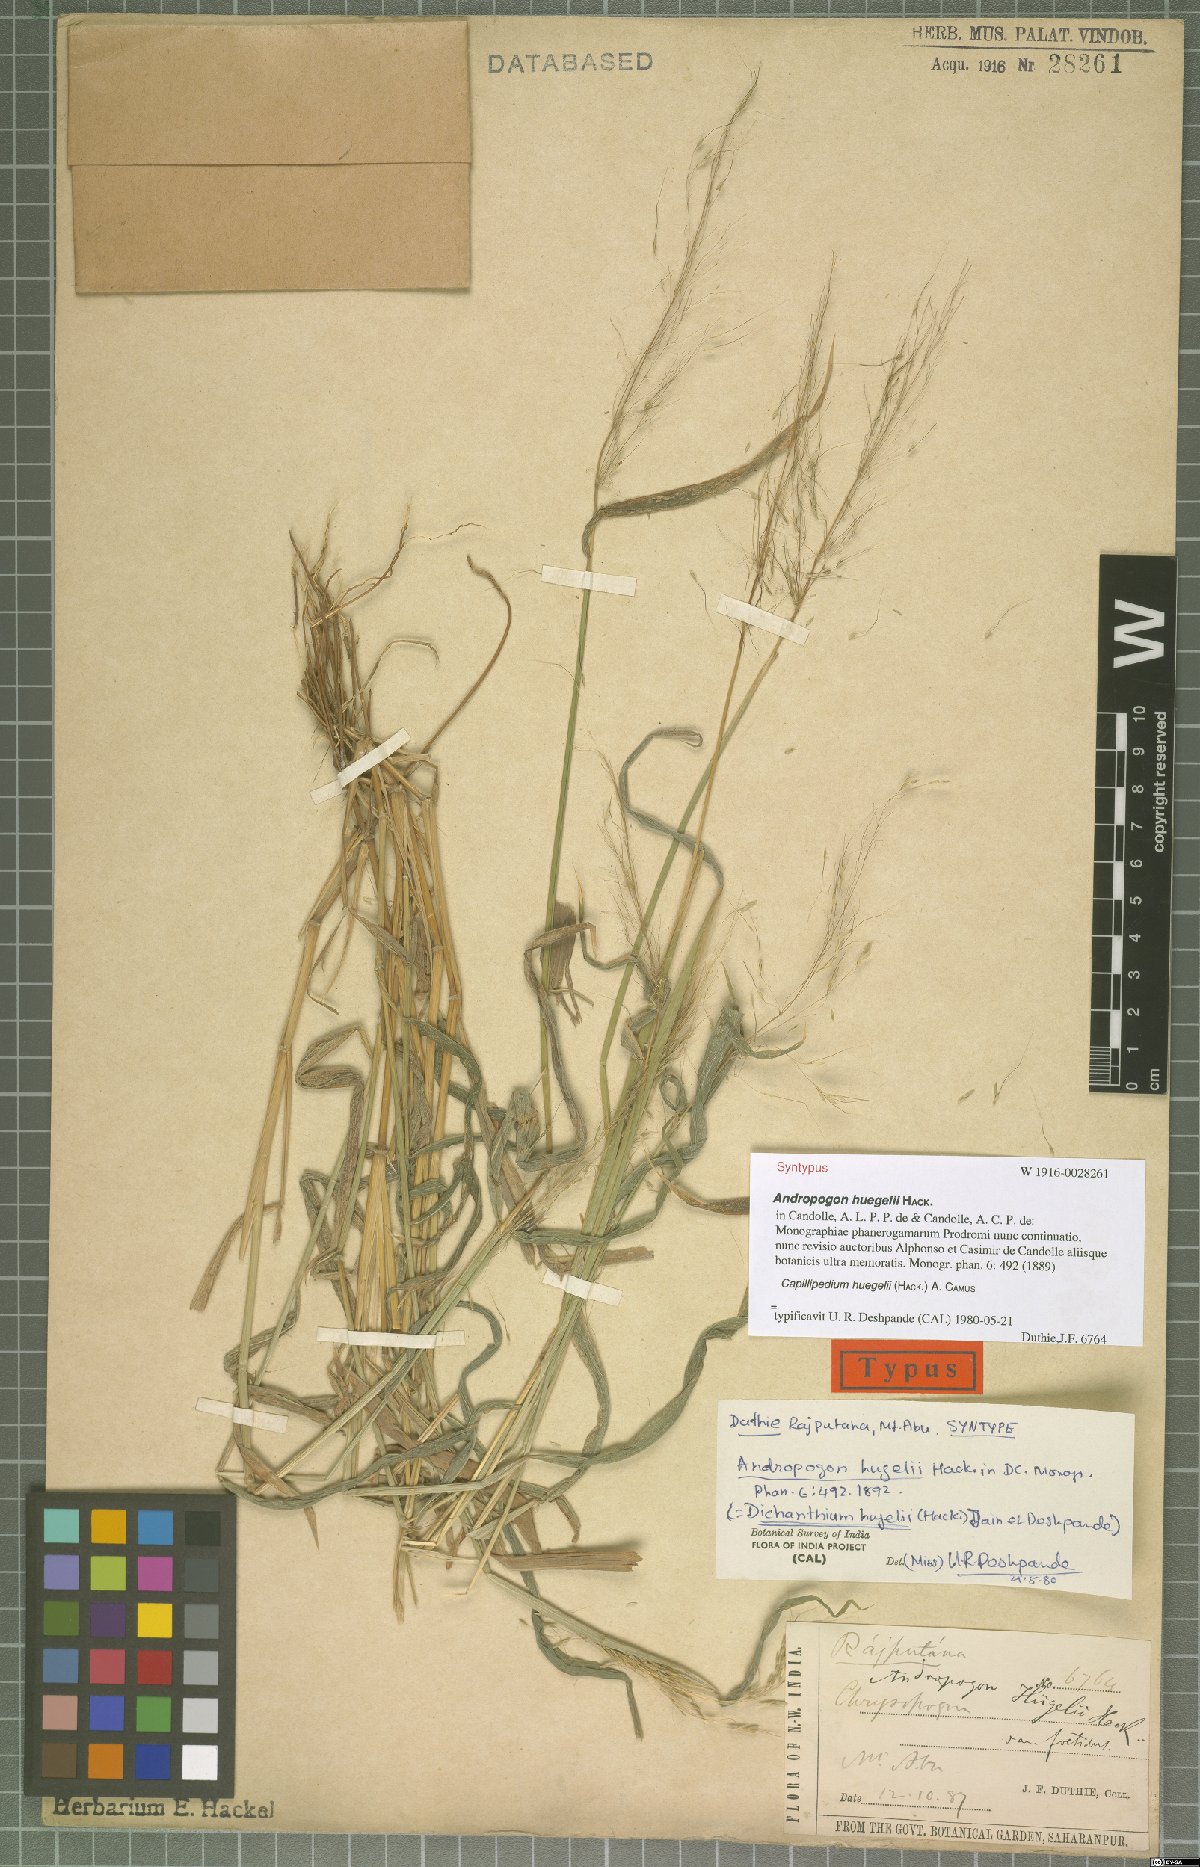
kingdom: Plantae
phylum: Tracheophyta
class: Liliopsida
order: Poales
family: Poaceae
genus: Capillipedium
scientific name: Capillipedium huegelii
